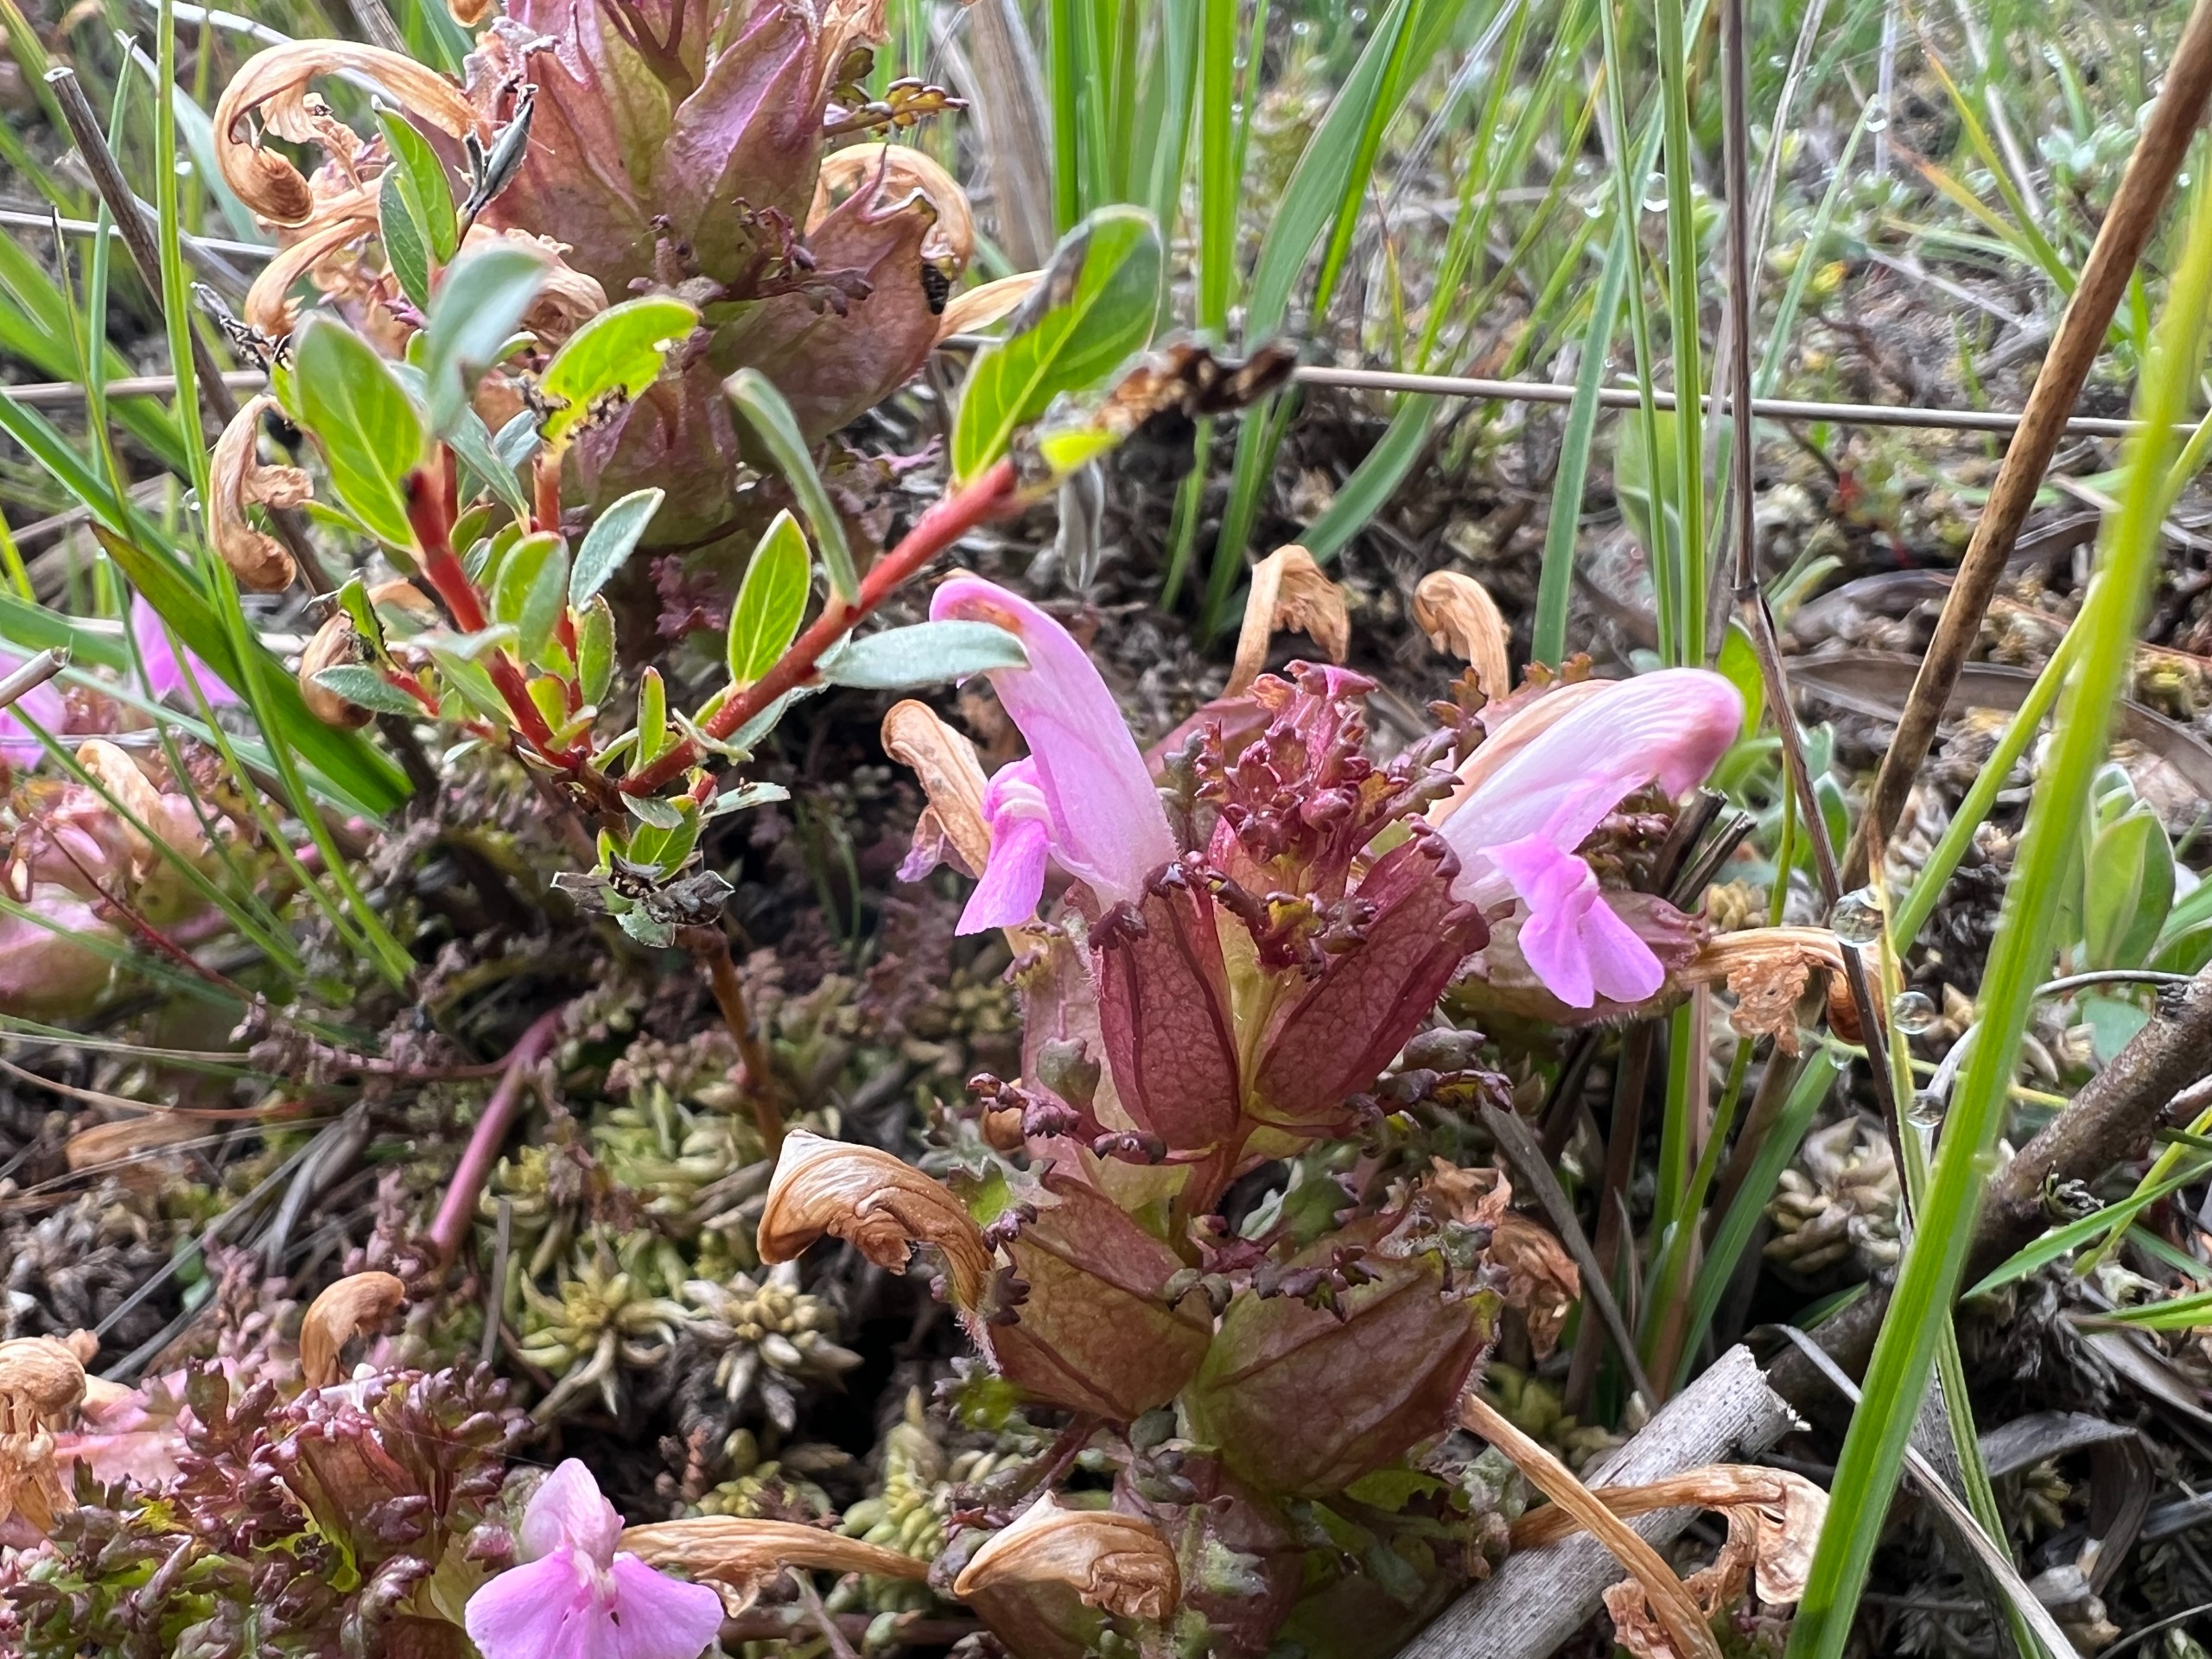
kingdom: Plantae
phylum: Tracheophyta
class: Magnoliopsida
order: Lamiales
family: Orobanchaceae
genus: Pedicularis
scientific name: Pedicularis sylvatica
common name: Mose-troldurt
